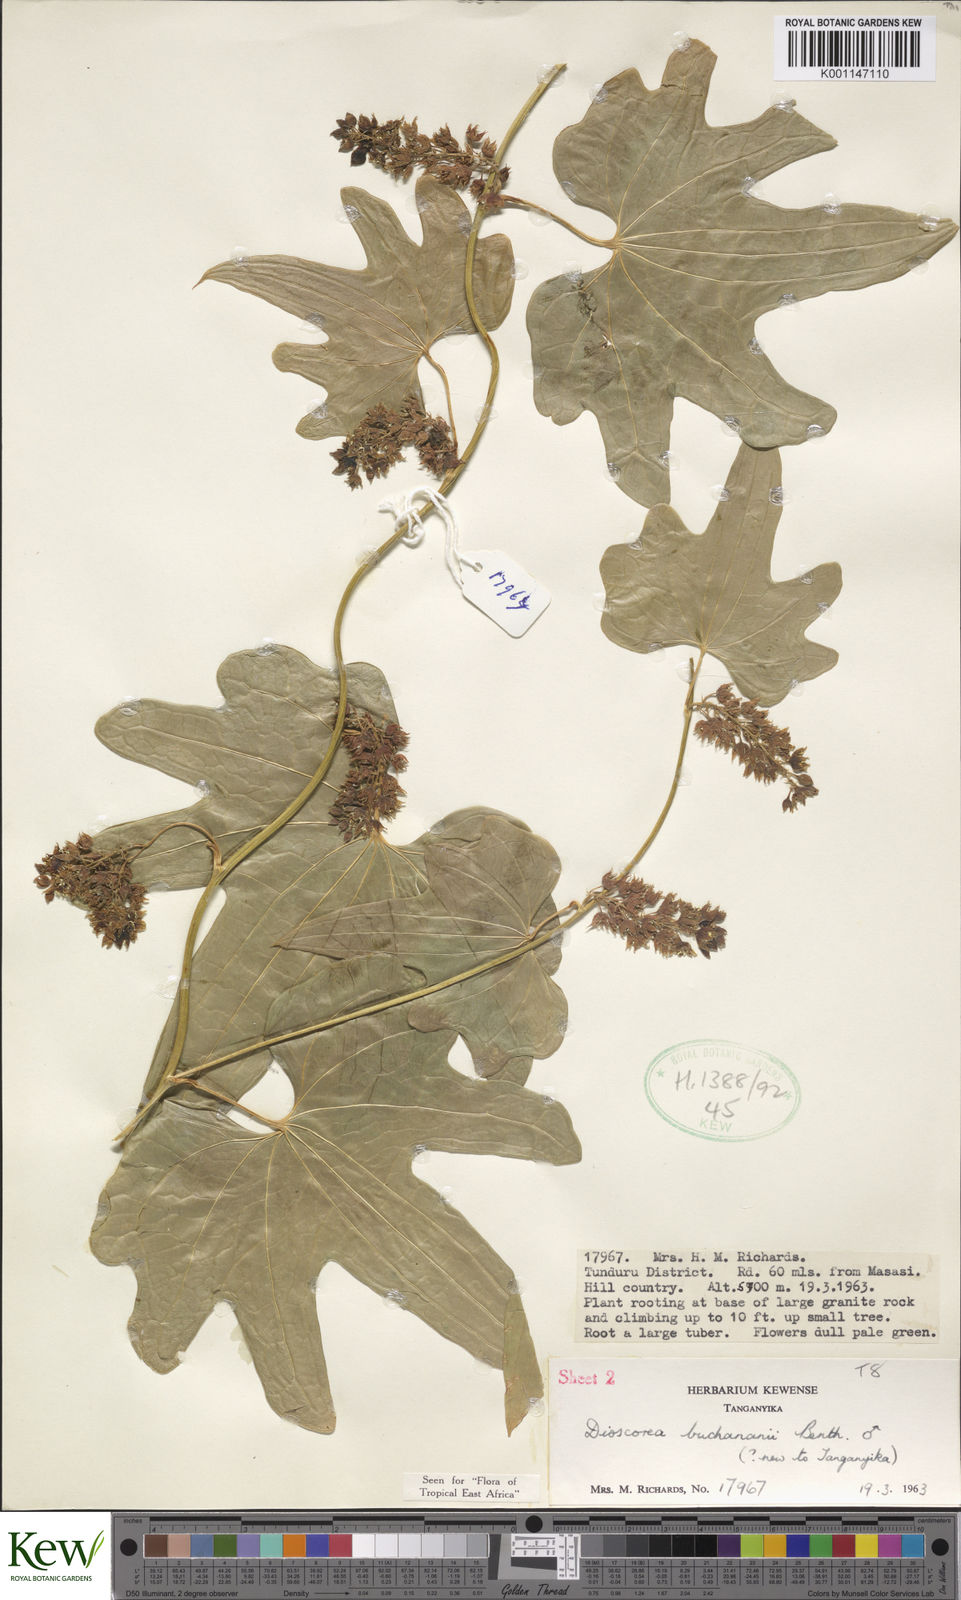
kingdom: Plantae
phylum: Tracheophyta
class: Liliopsida
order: Dioscoreales
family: Dioscoreaceae
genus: Dioscorea
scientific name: Dioscorea buchananii
